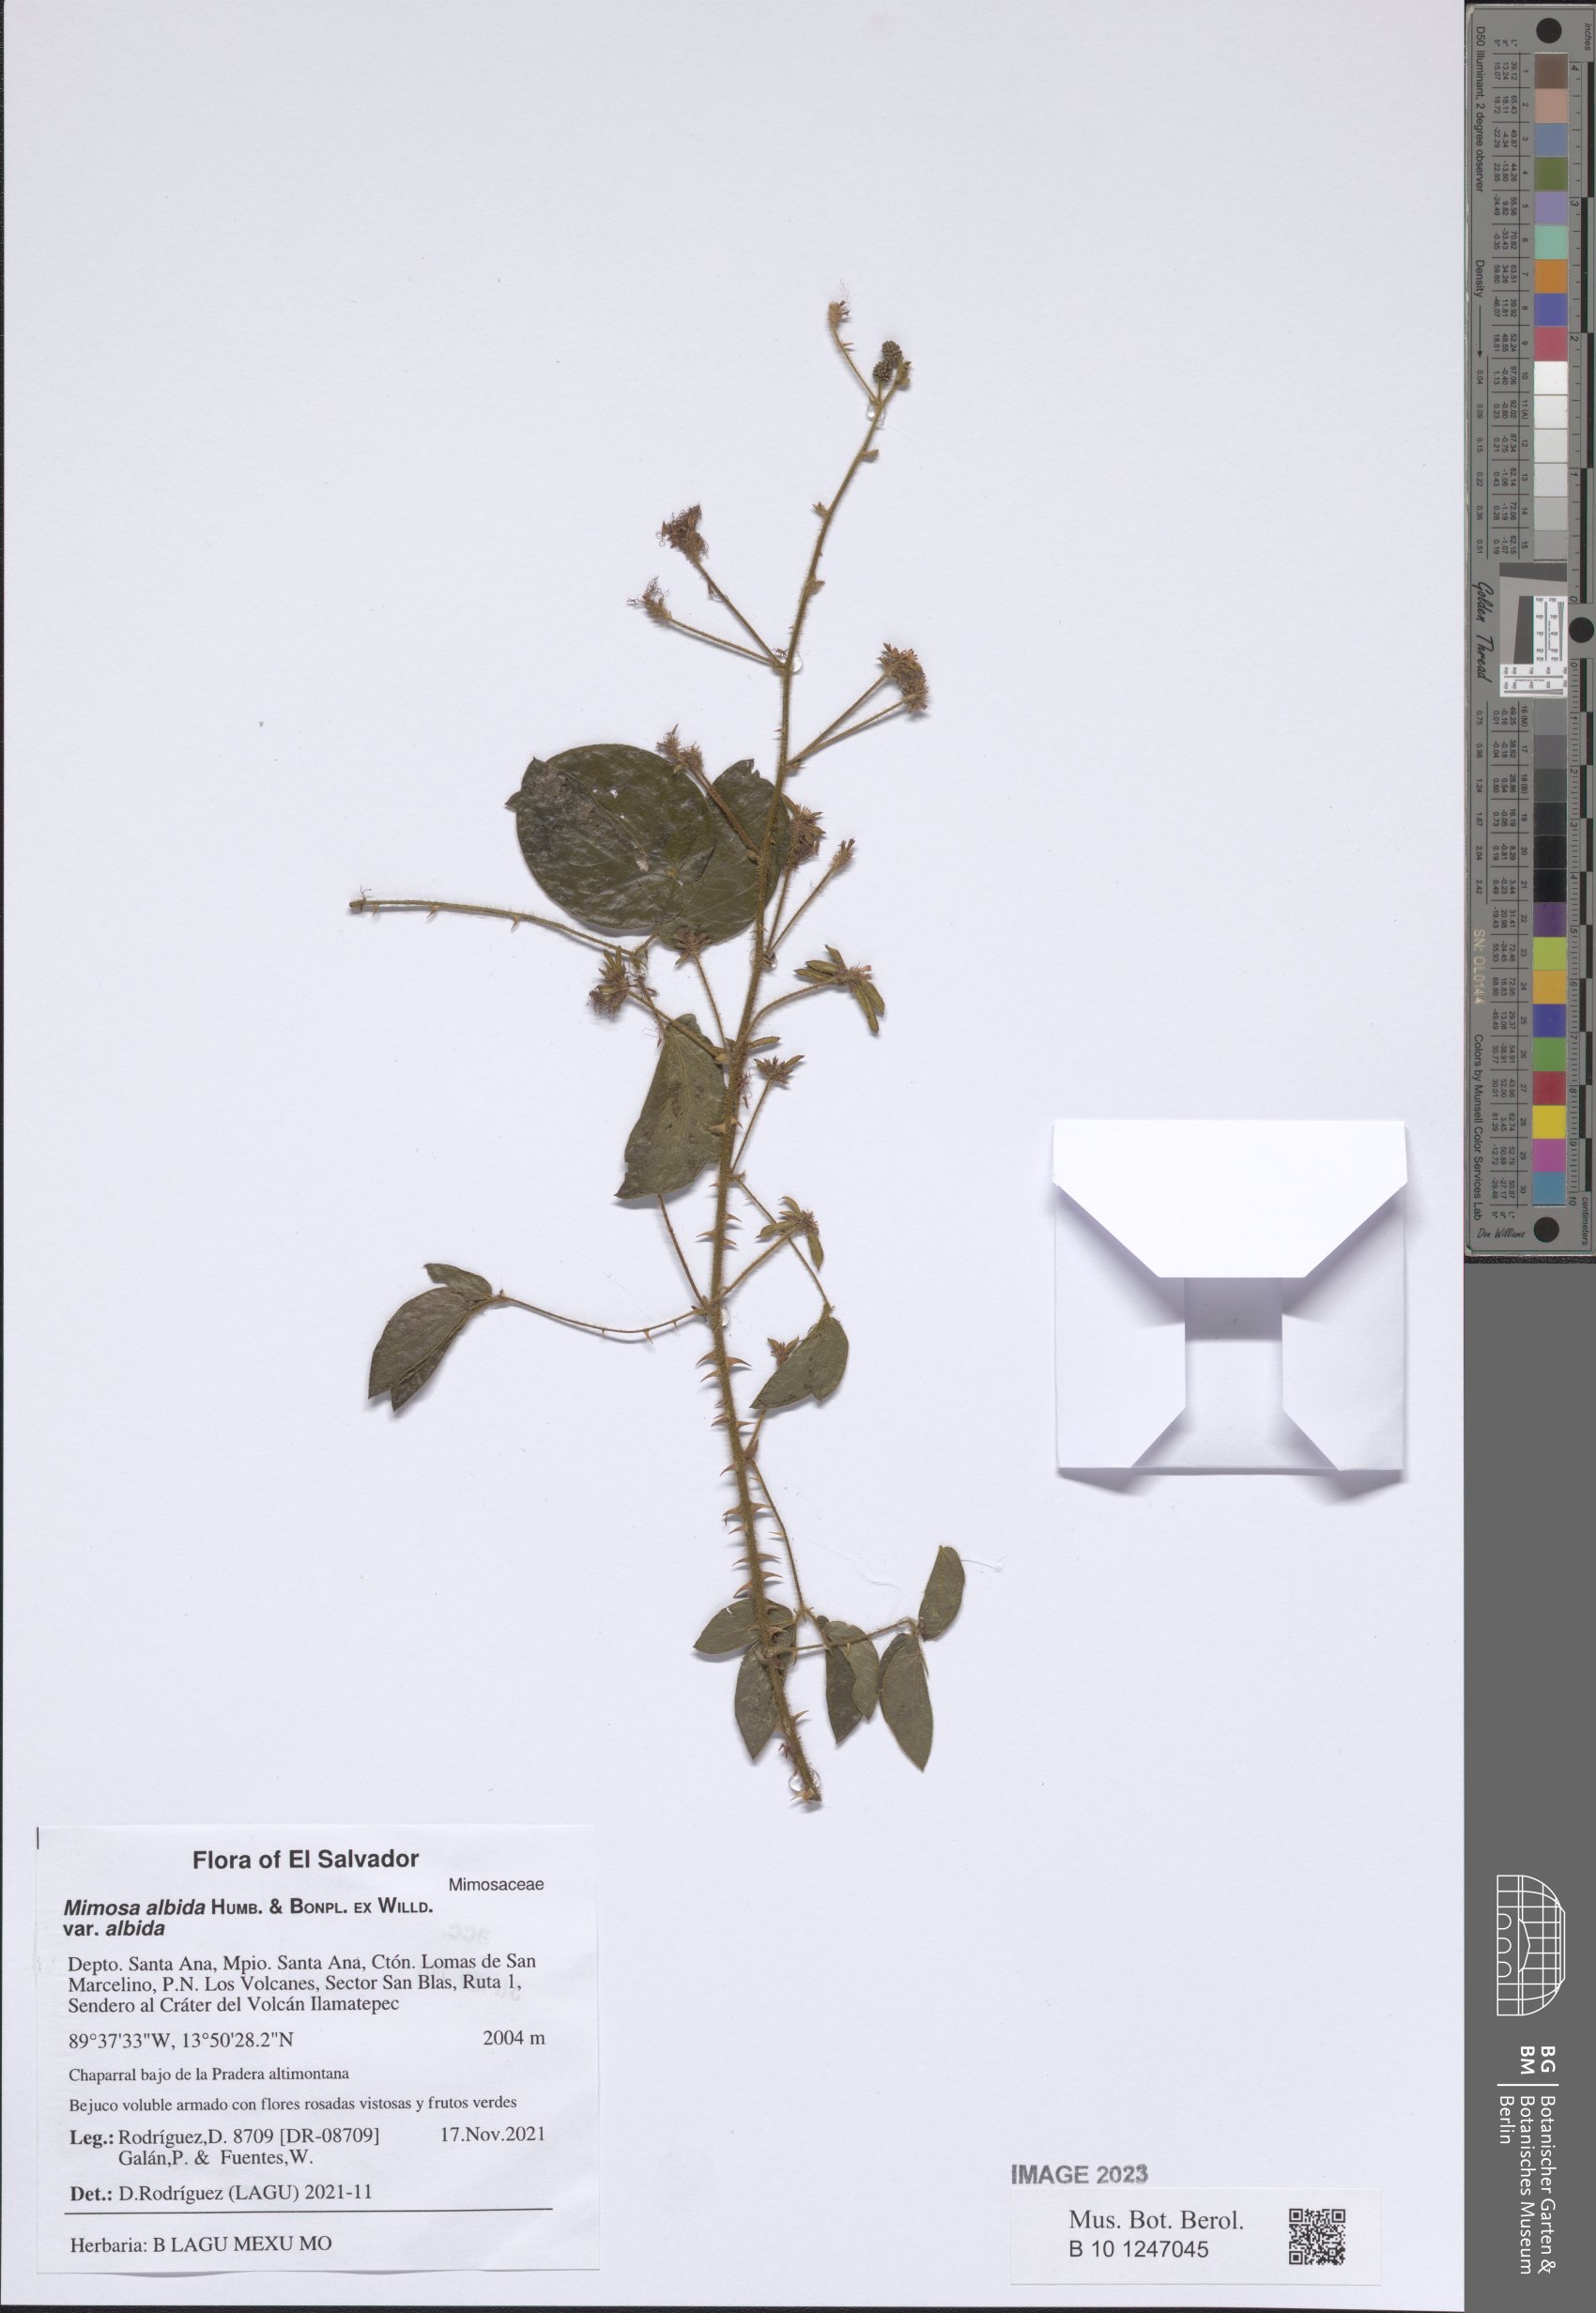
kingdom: Plantae
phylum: Tracheophyta
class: Magnoliopsida
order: Fabales
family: Fabaceae
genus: Mimosa
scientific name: Mimosa albida
